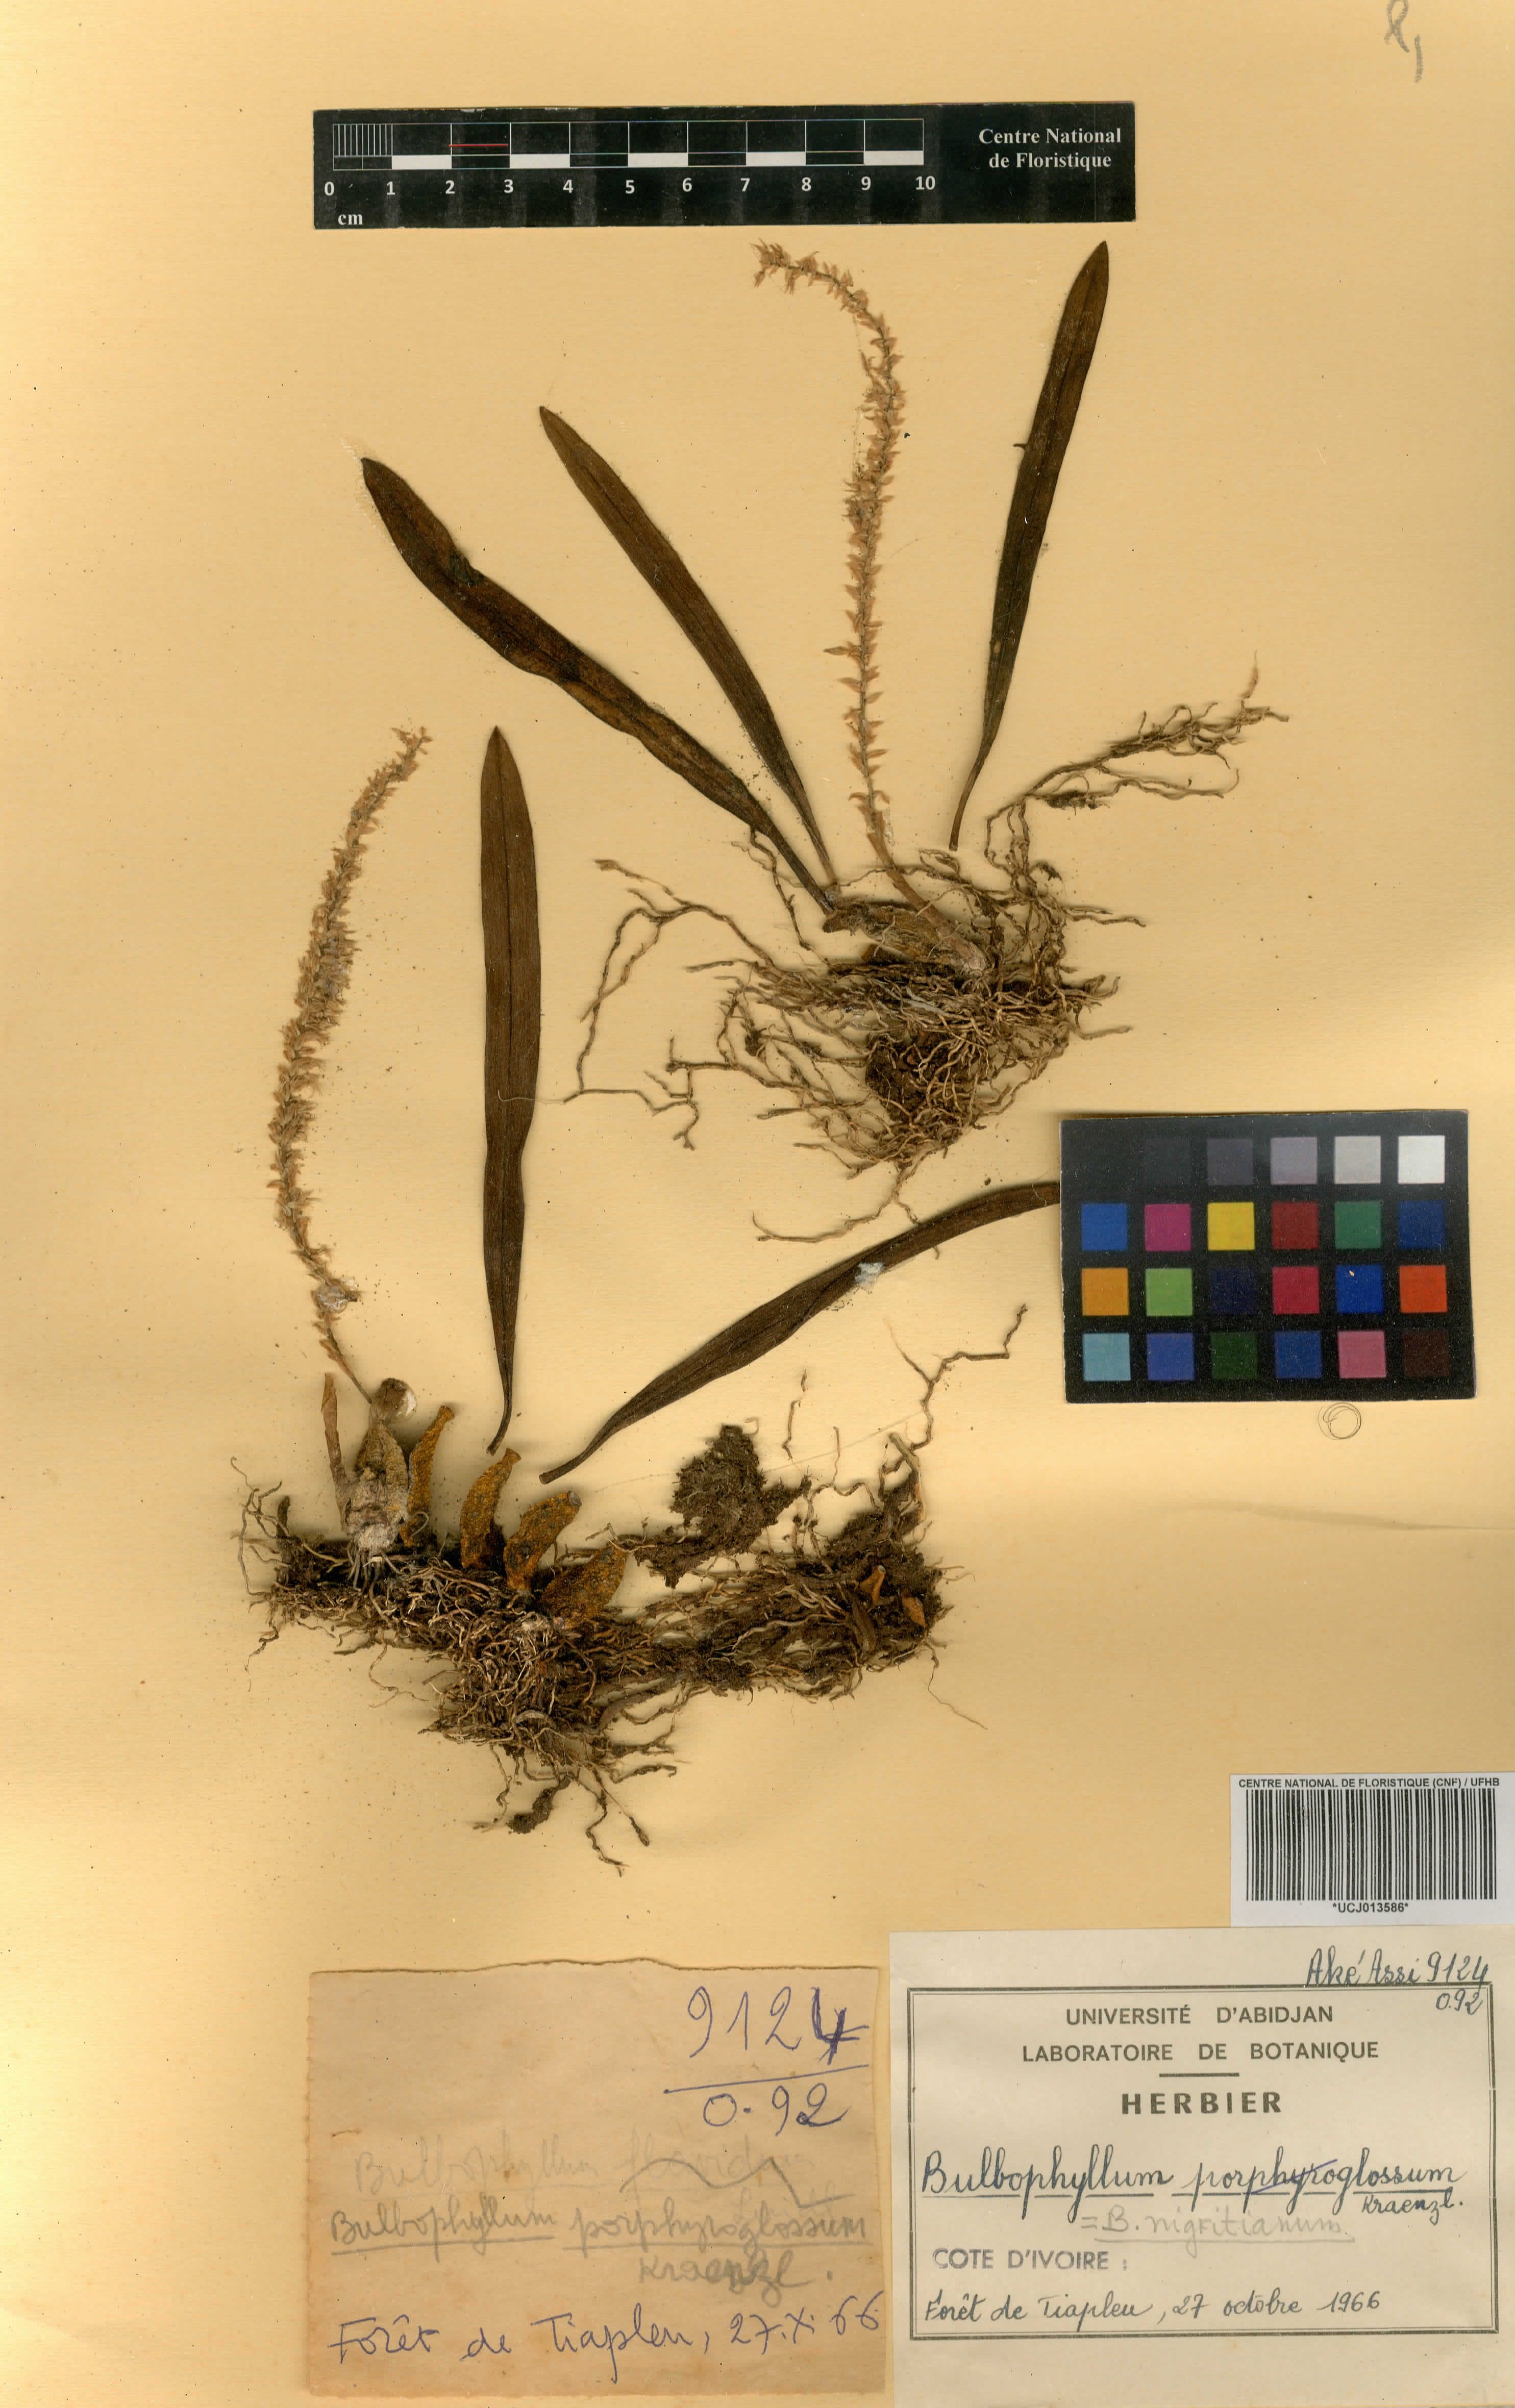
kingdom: Plantae
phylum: Tracheophyta
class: Liliopsida
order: Asparagales
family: Orchidaceae
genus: Bulbophyllum
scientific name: Bulbophyllum nigritianum
